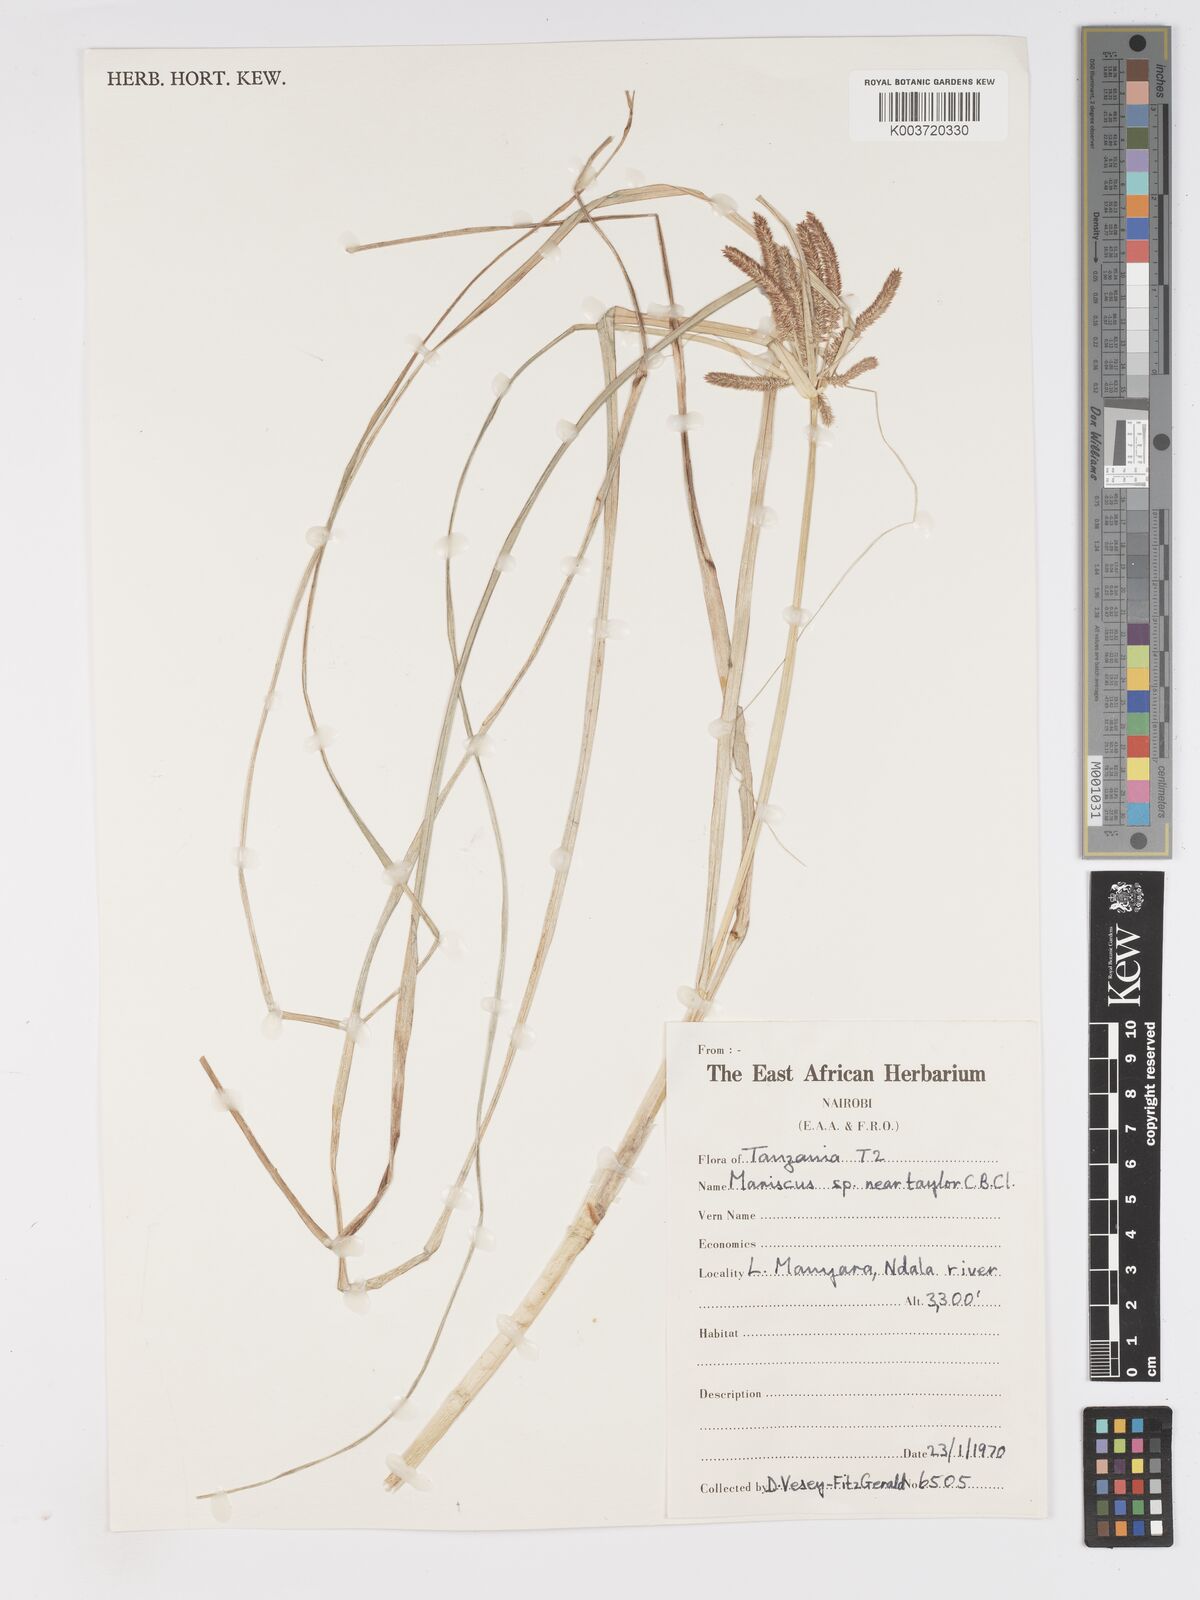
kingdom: Plantae
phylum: Tracheophyta
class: Liliopsida
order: Poales
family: Cyperaceae
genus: Cyperus
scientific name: Cyperus
